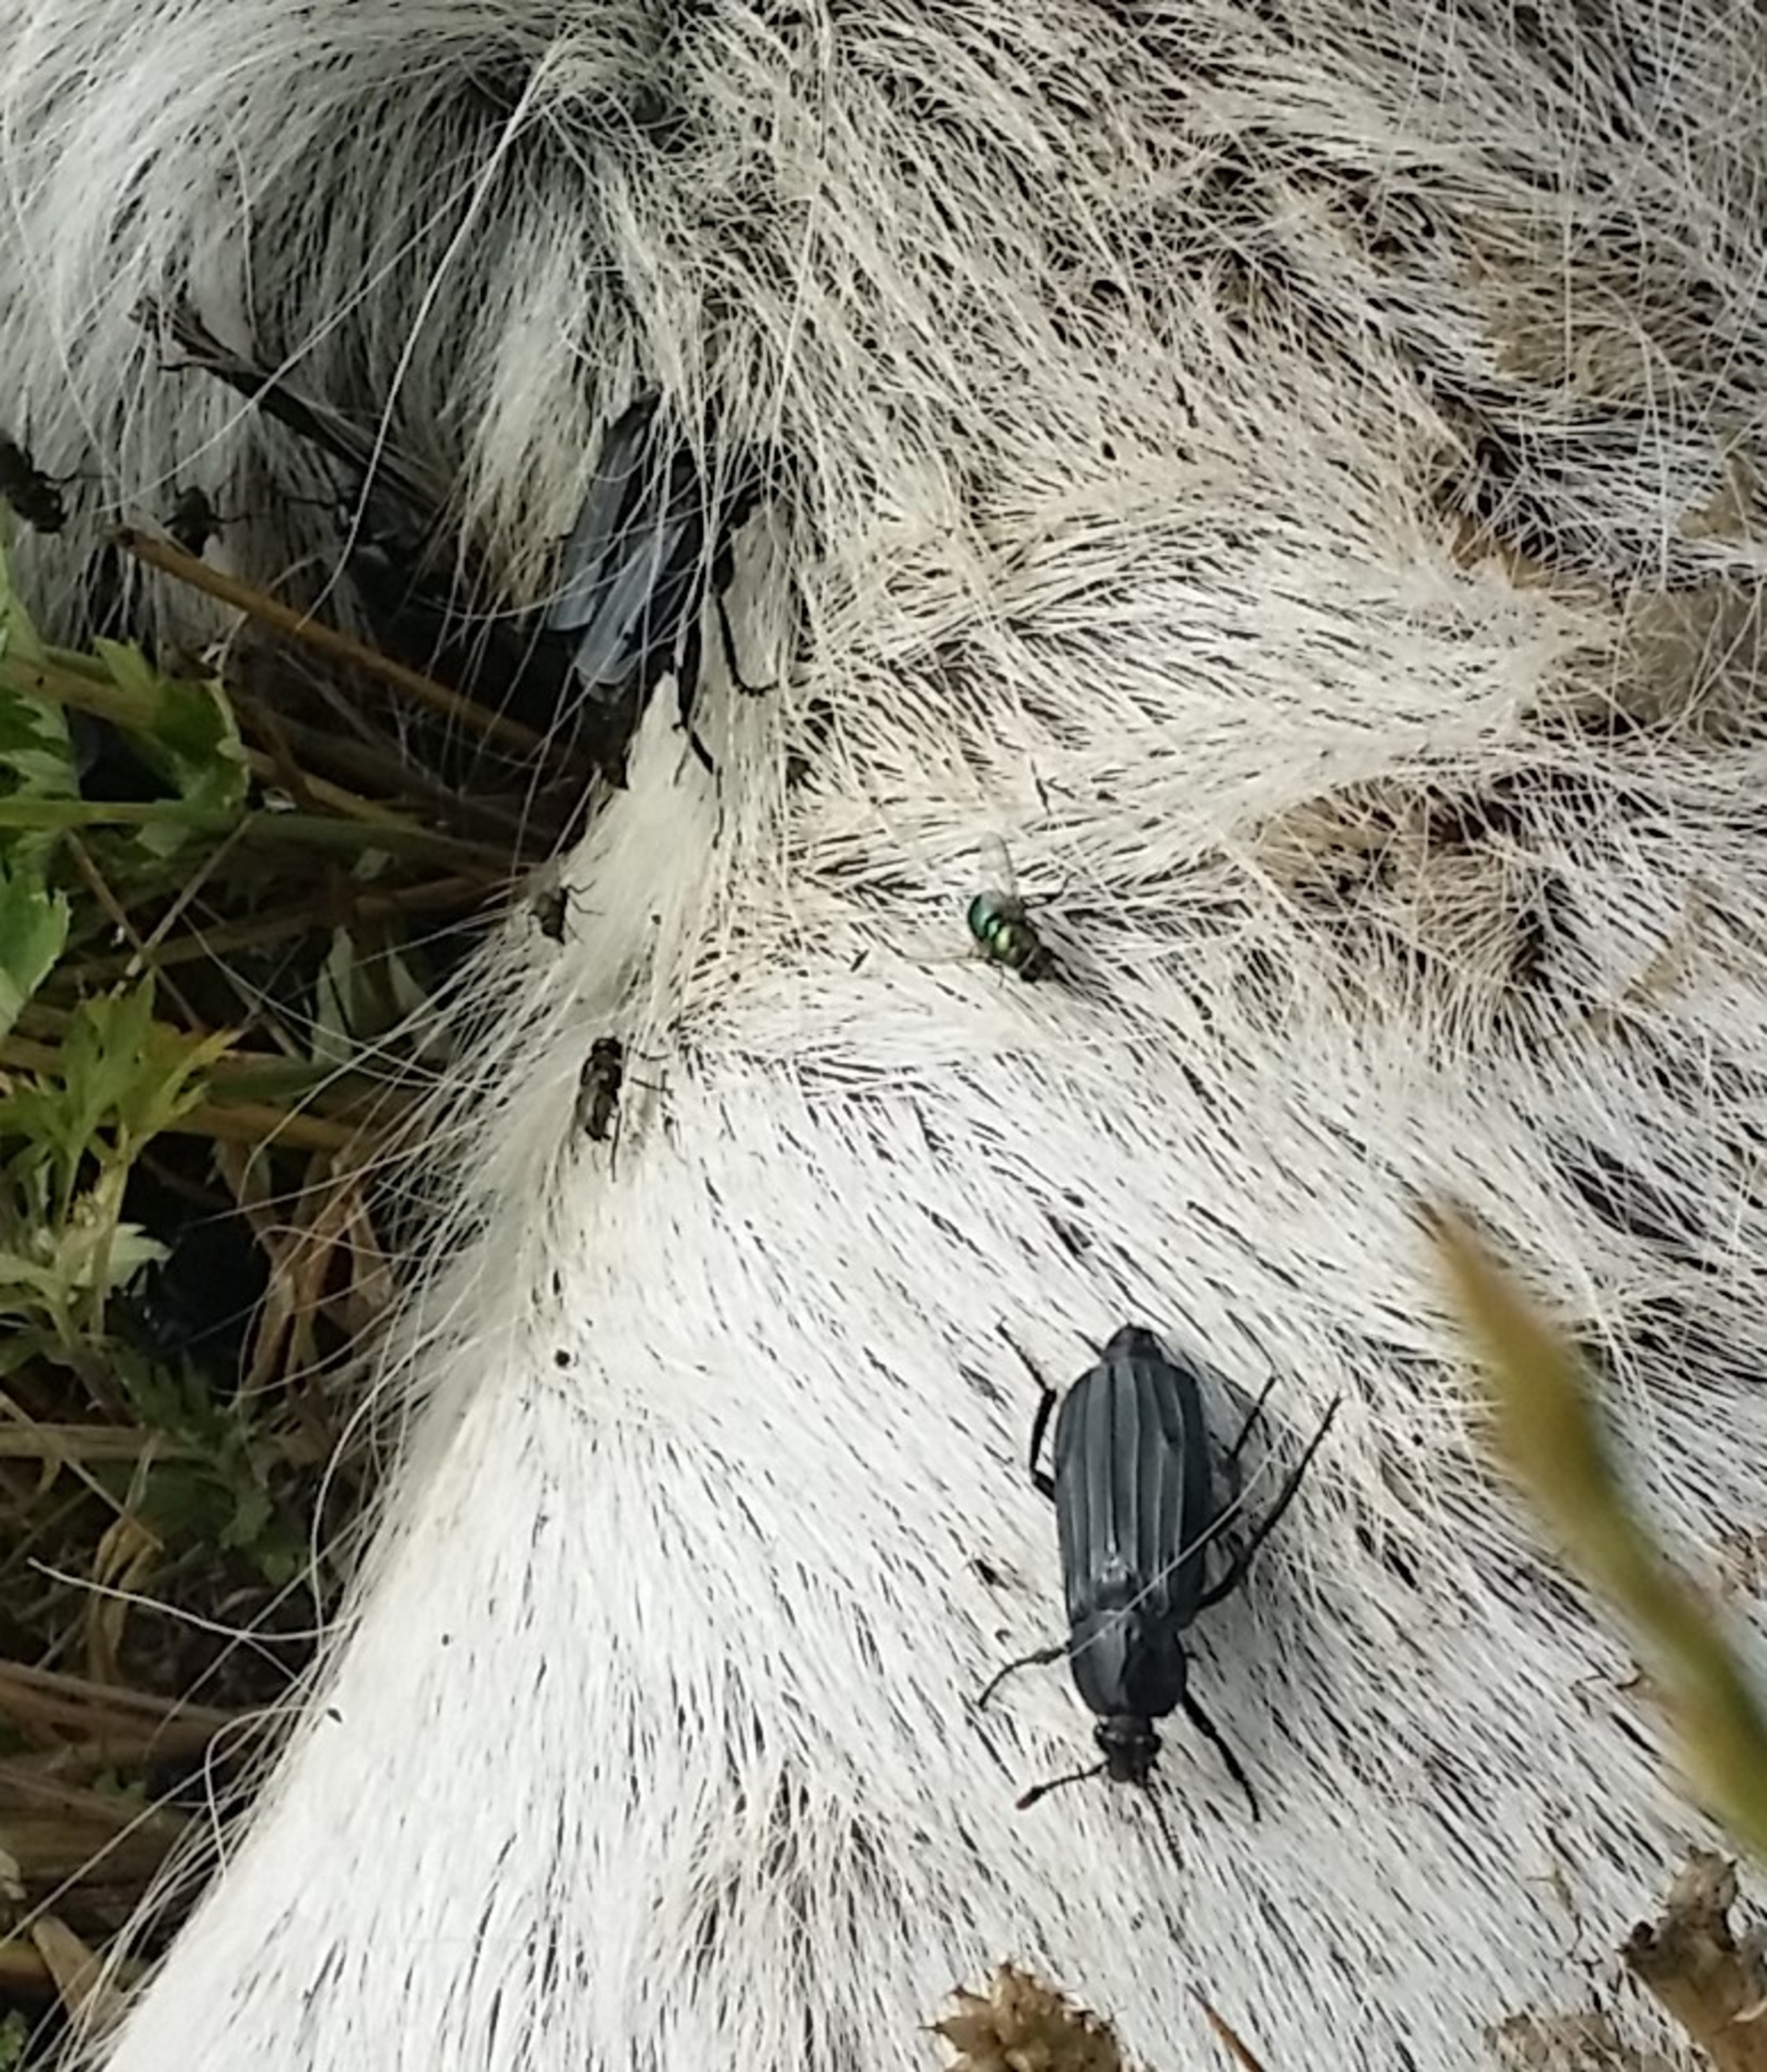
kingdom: Animalia
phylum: Arthropoda
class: Insecta
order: Coleoptera
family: Staphylinidae
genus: Necrodes
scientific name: Necrodes littoralis
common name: Ligrøver
